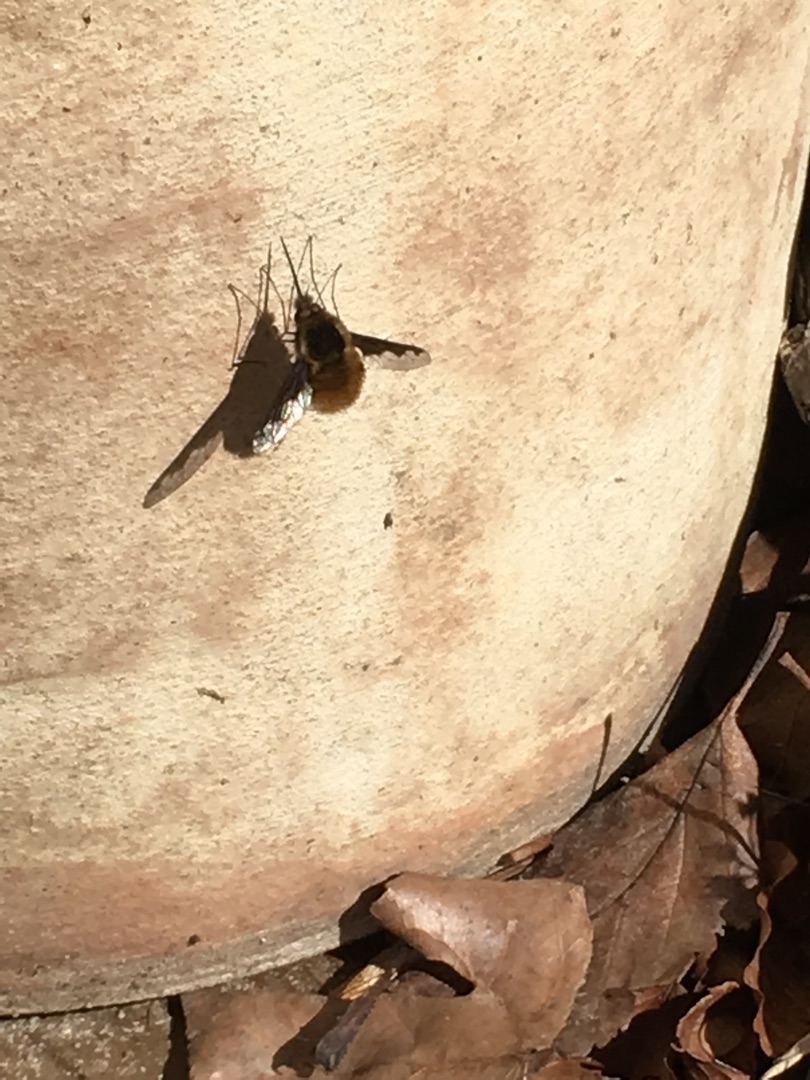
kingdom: Animalia
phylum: Arthropoda
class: Insecta
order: Diptera
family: Bombyliidae
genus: Bombylius
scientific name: Bombylius major
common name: Stor humleflue
